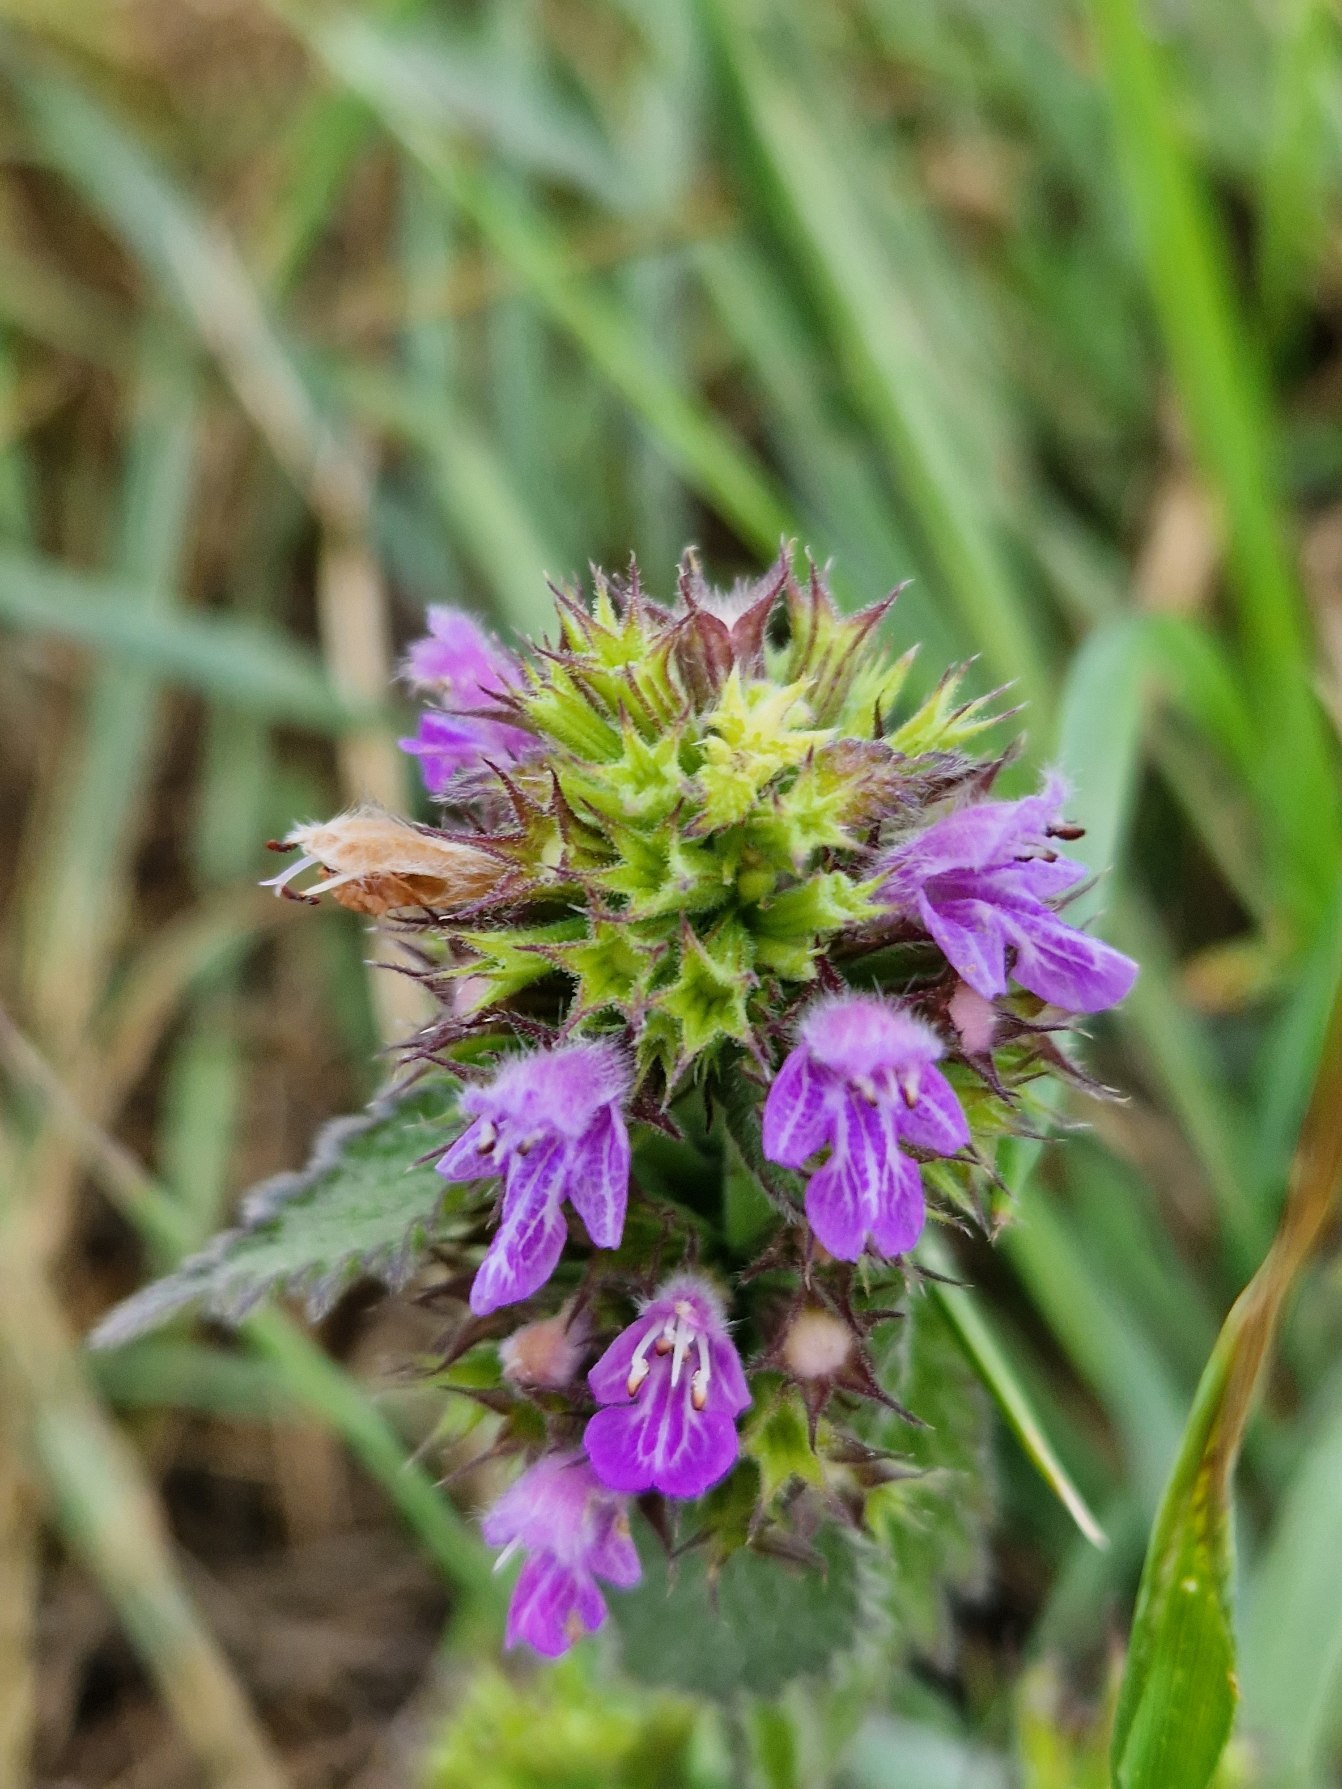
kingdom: Plantae
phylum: Tracheophyta
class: Magnoliopsida
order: Lamiales
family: Lamiaceae
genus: Ballota
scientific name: Ballota nigra
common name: Tandbæger
